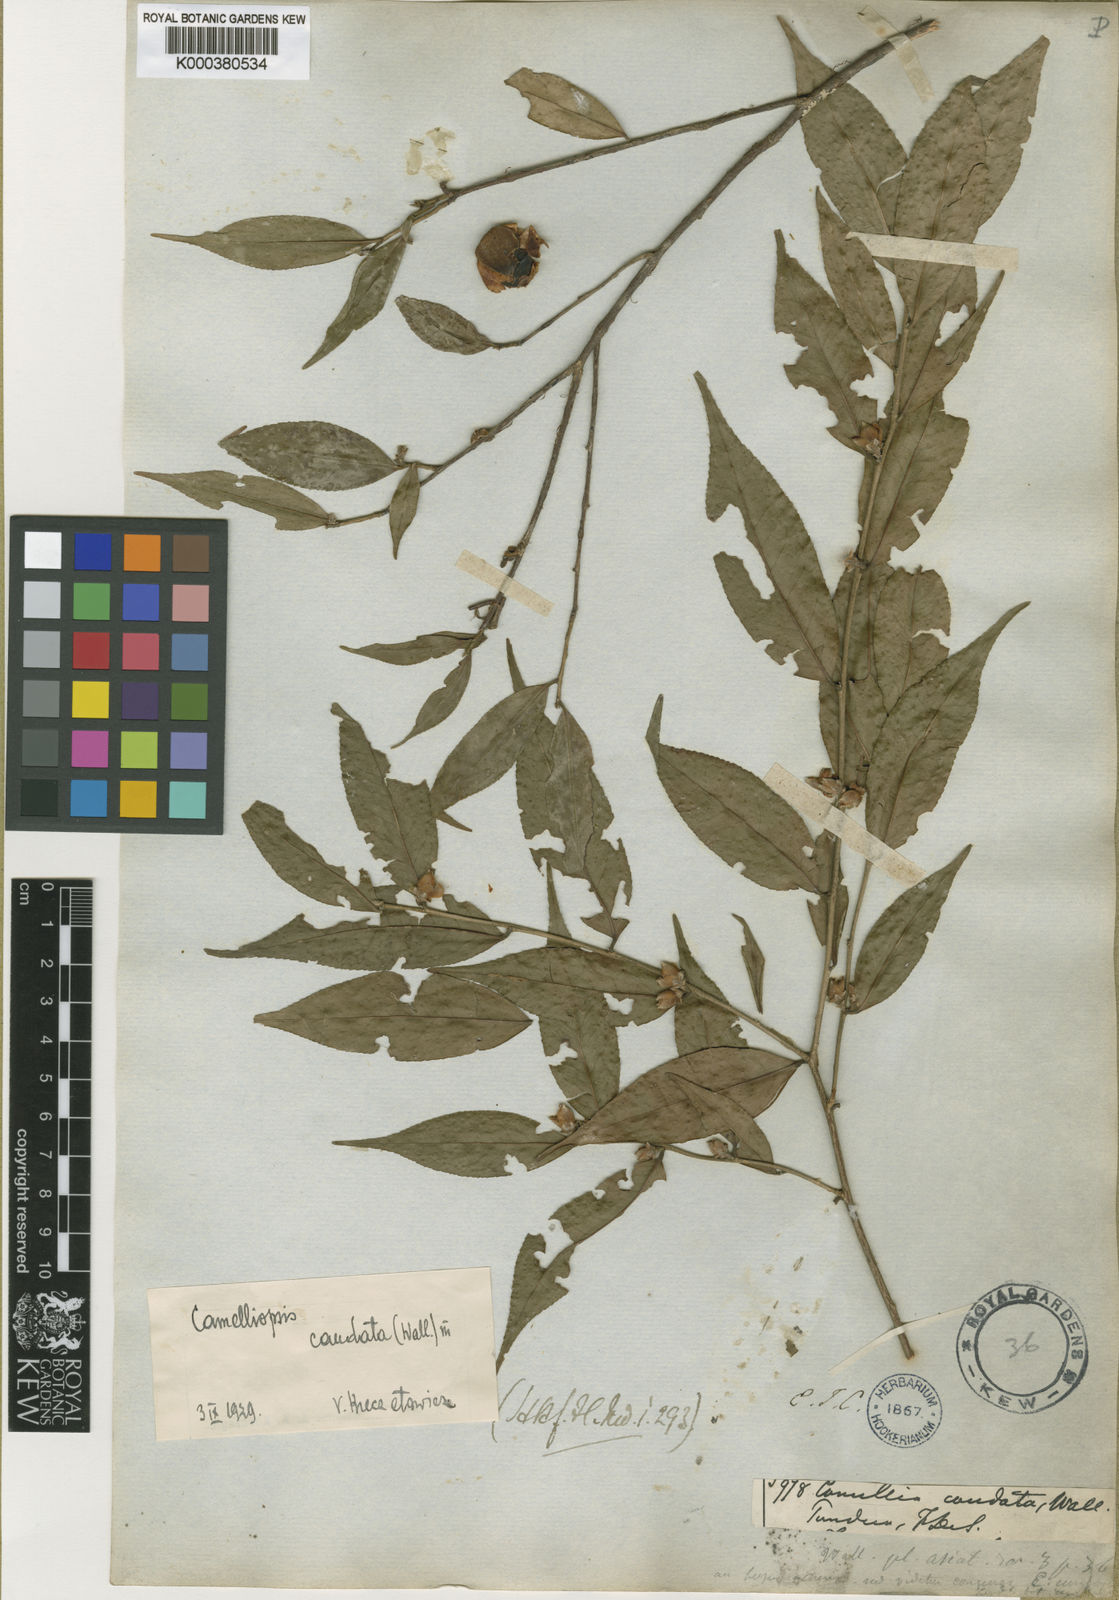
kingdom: Plantae
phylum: Tracheophyta
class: Magnoliopsida
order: Ericales
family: Theaceae
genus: Camellia
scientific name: Camellia caudata
